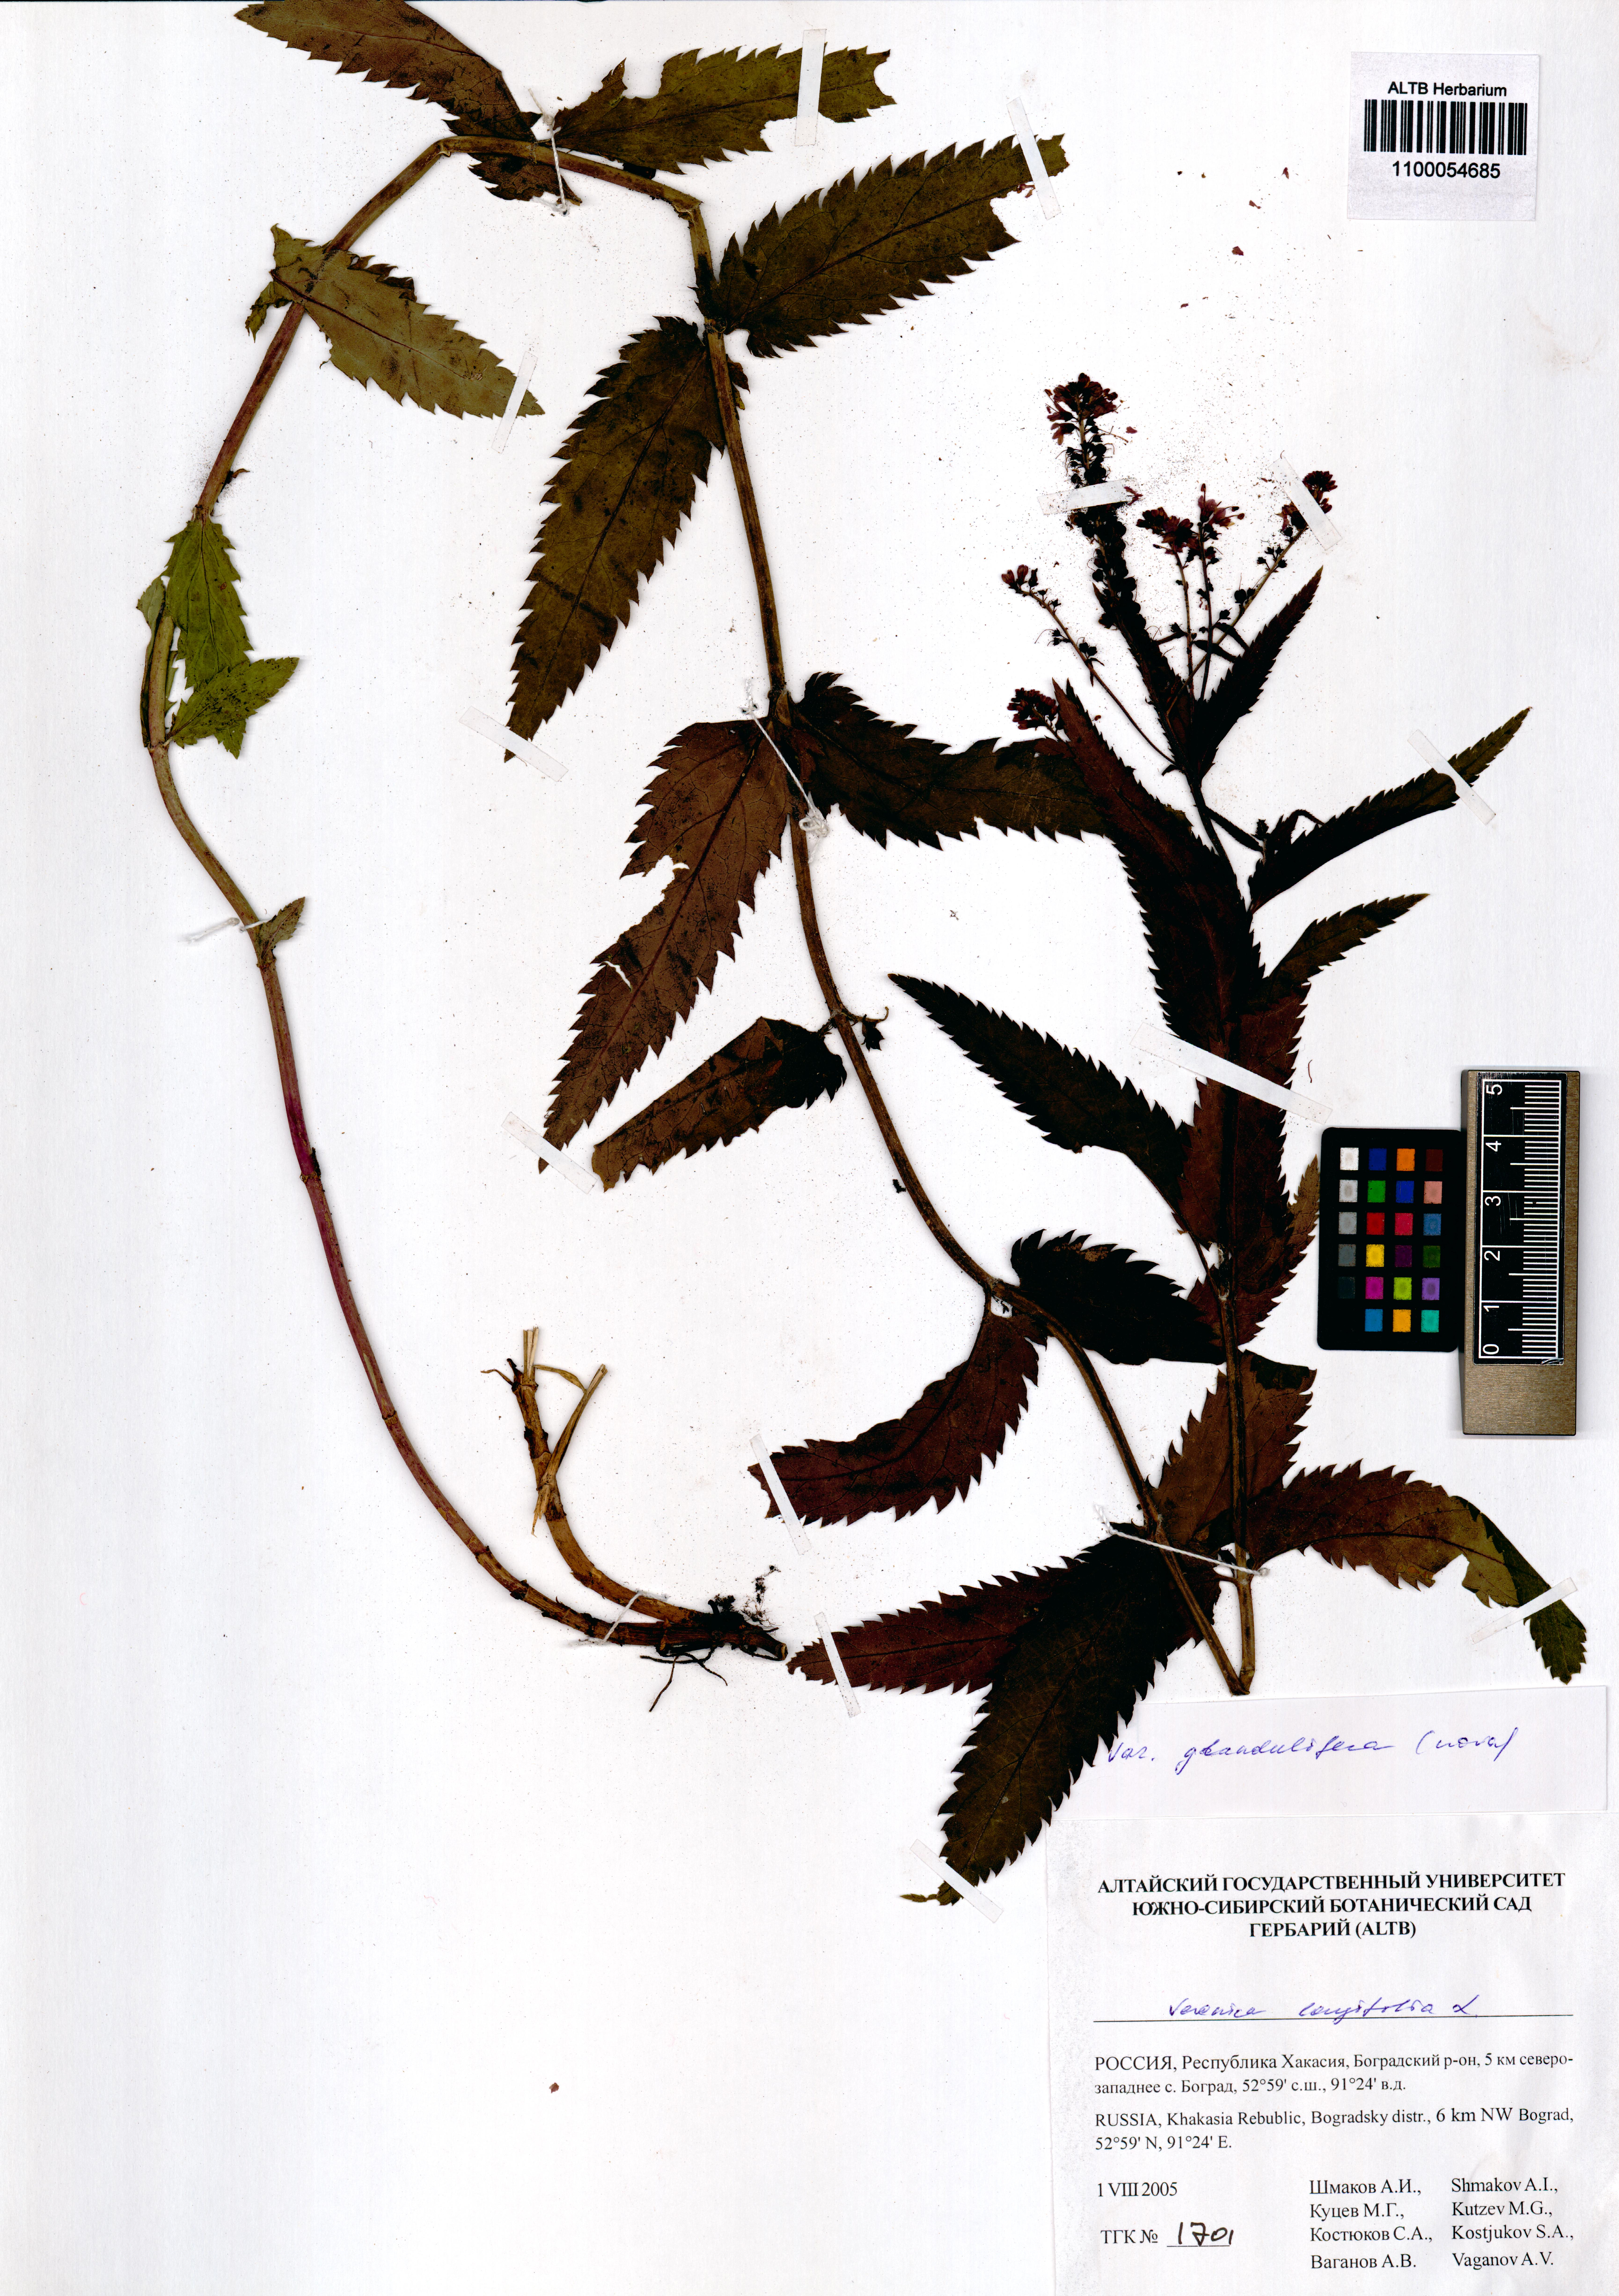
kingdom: Plantae
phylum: Tracheophyta
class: Magnoliopsida
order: Lamiales
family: Plantaginaceae
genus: Veronica
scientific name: Veronica longifolia
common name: Garden speedwell
